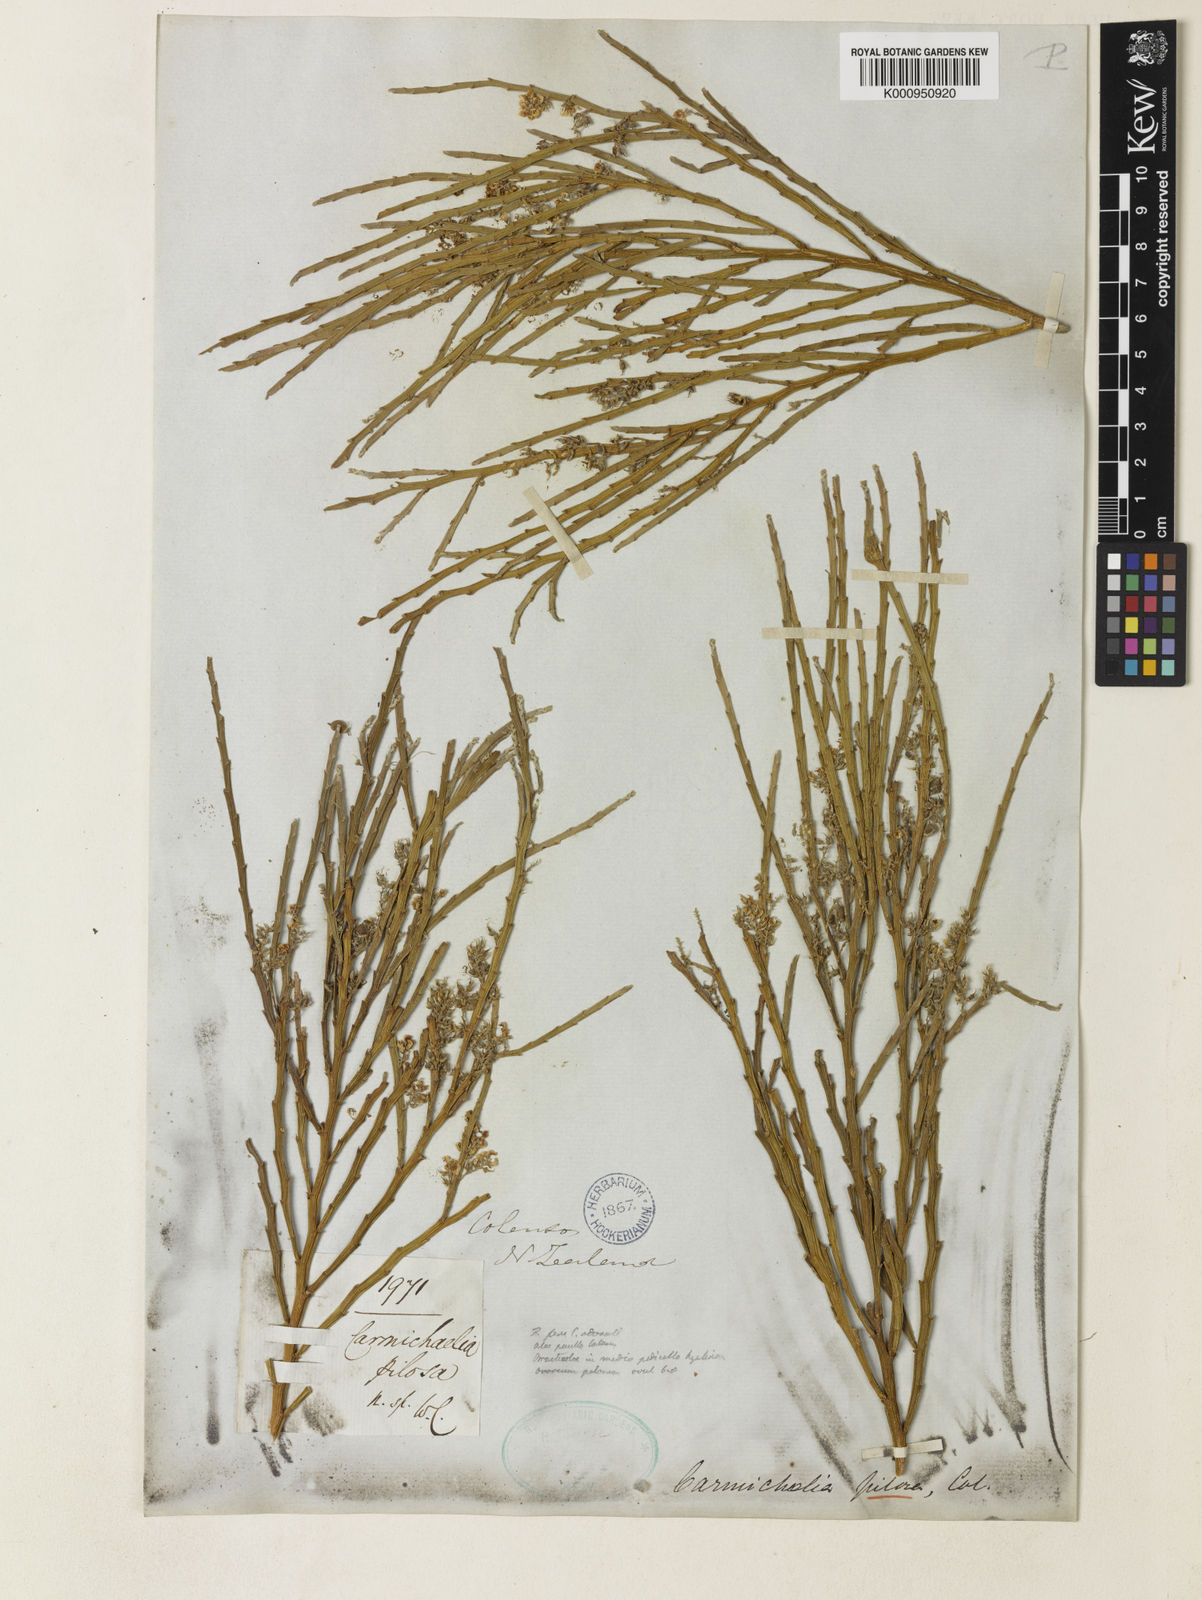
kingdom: Plantae
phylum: Tracheophyta
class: Magnoliopsida
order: Fabales
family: Fabaceae
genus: Carmichaelia
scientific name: Carmichaelia odorata
